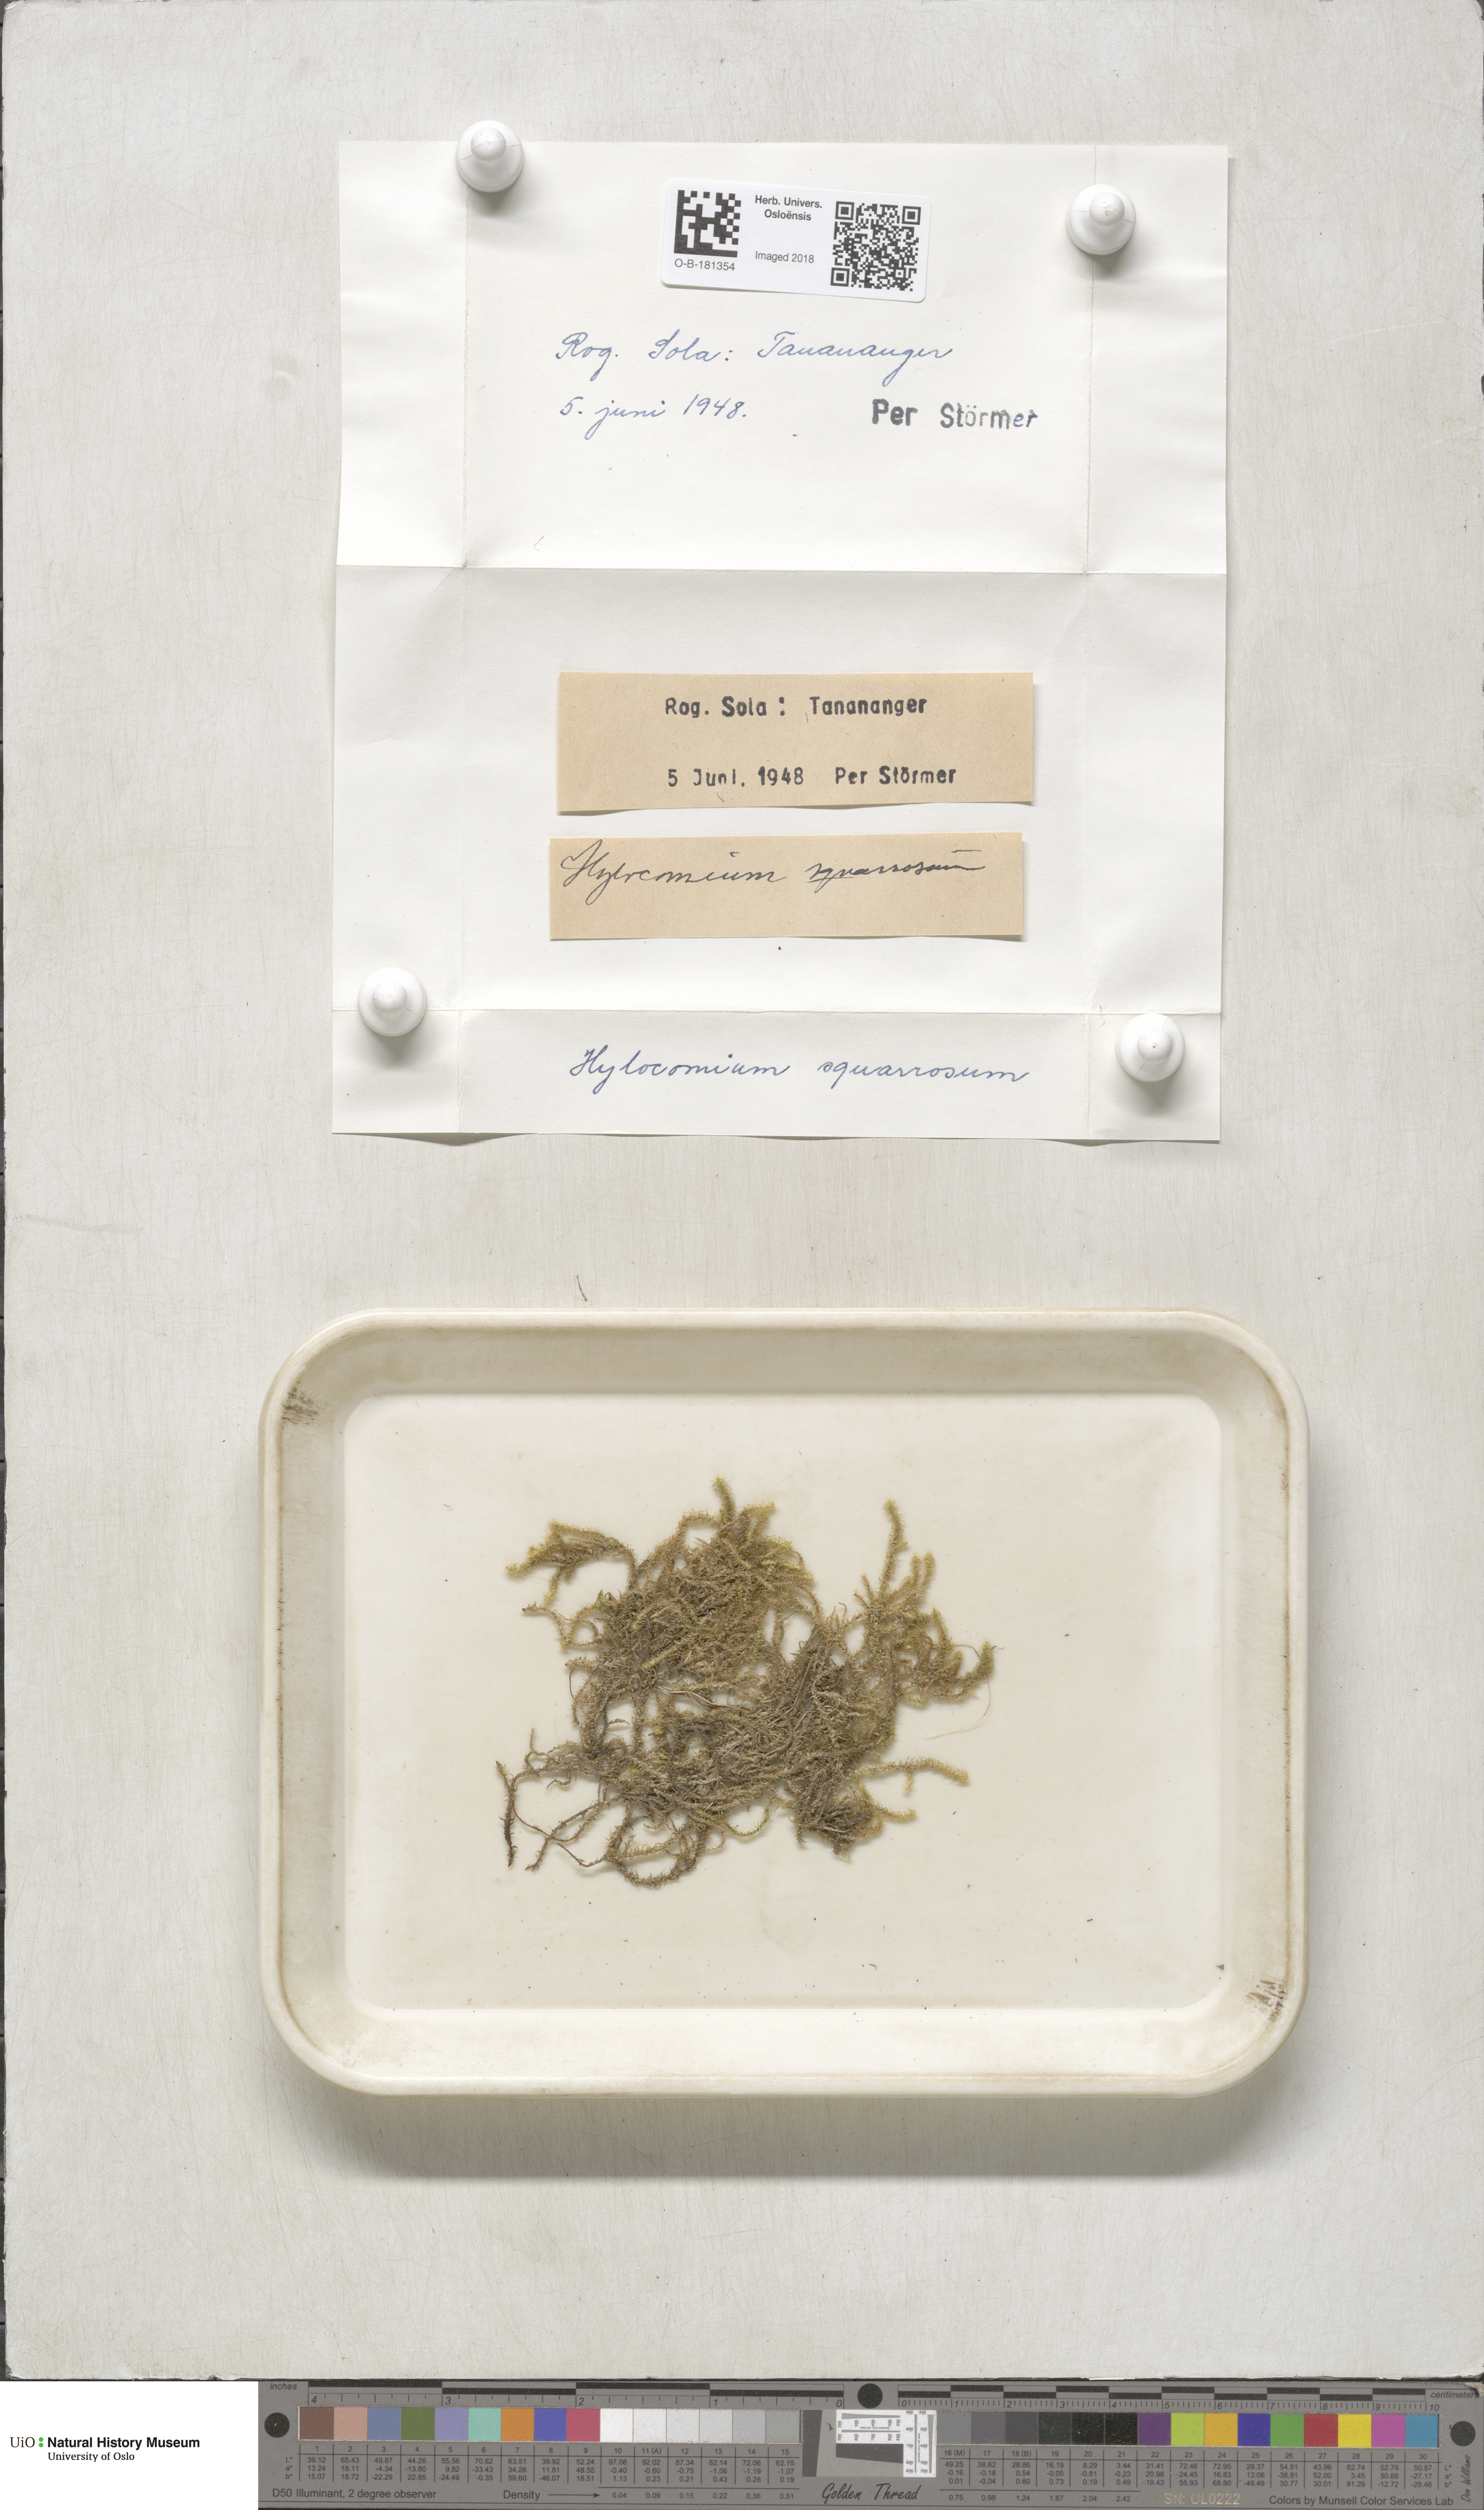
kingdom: Plantae
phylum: Bryophyta
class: Bryopsida
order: Hypnales
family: Hylocomiaceae
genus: Rhytidiadelphus
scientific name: Rhytidiadelphus squarrosus
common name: Springy turf-moss
